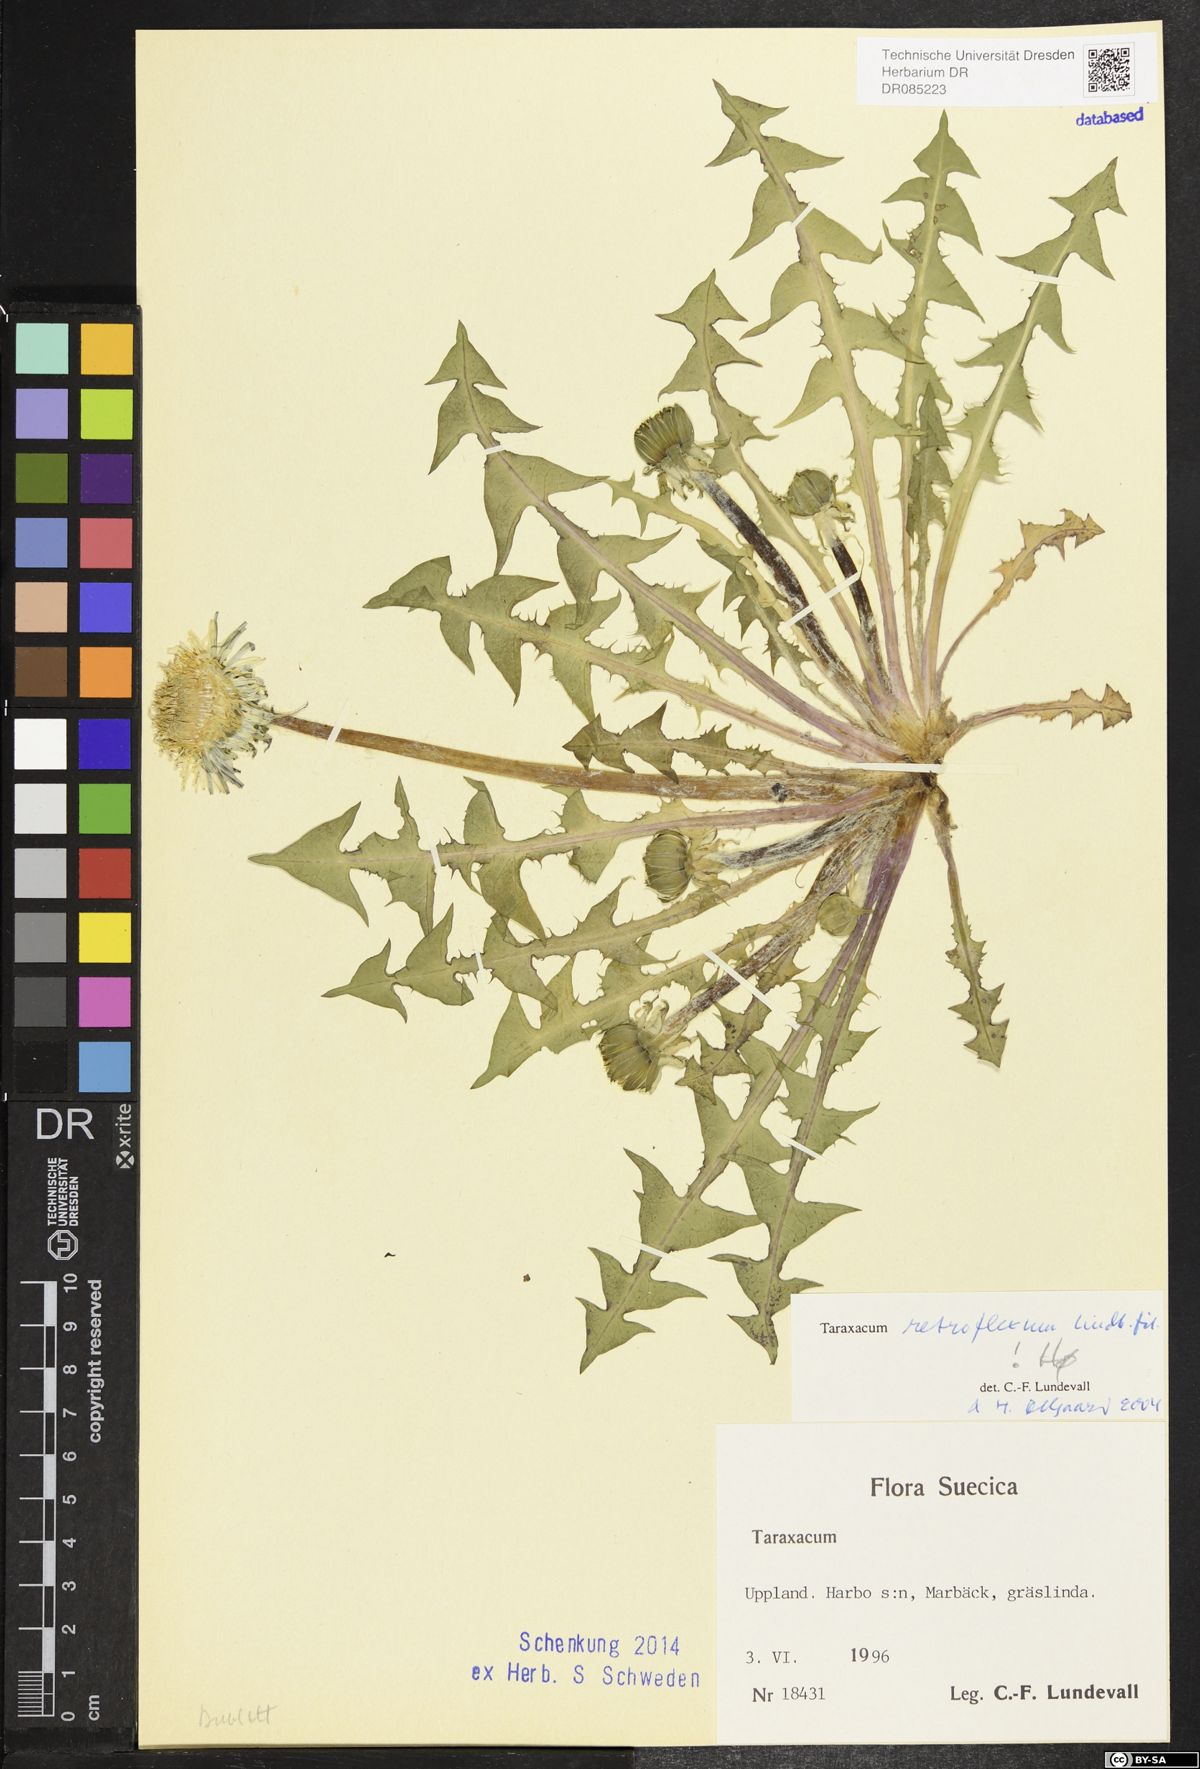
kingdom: Plantae
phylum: Tracheophyta
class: Magnoliopsida
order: Asterales
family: Asteraceae
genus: Taraxacum
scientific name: Taraxacum retroflexum
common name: Reflexed-lobed dandelion
